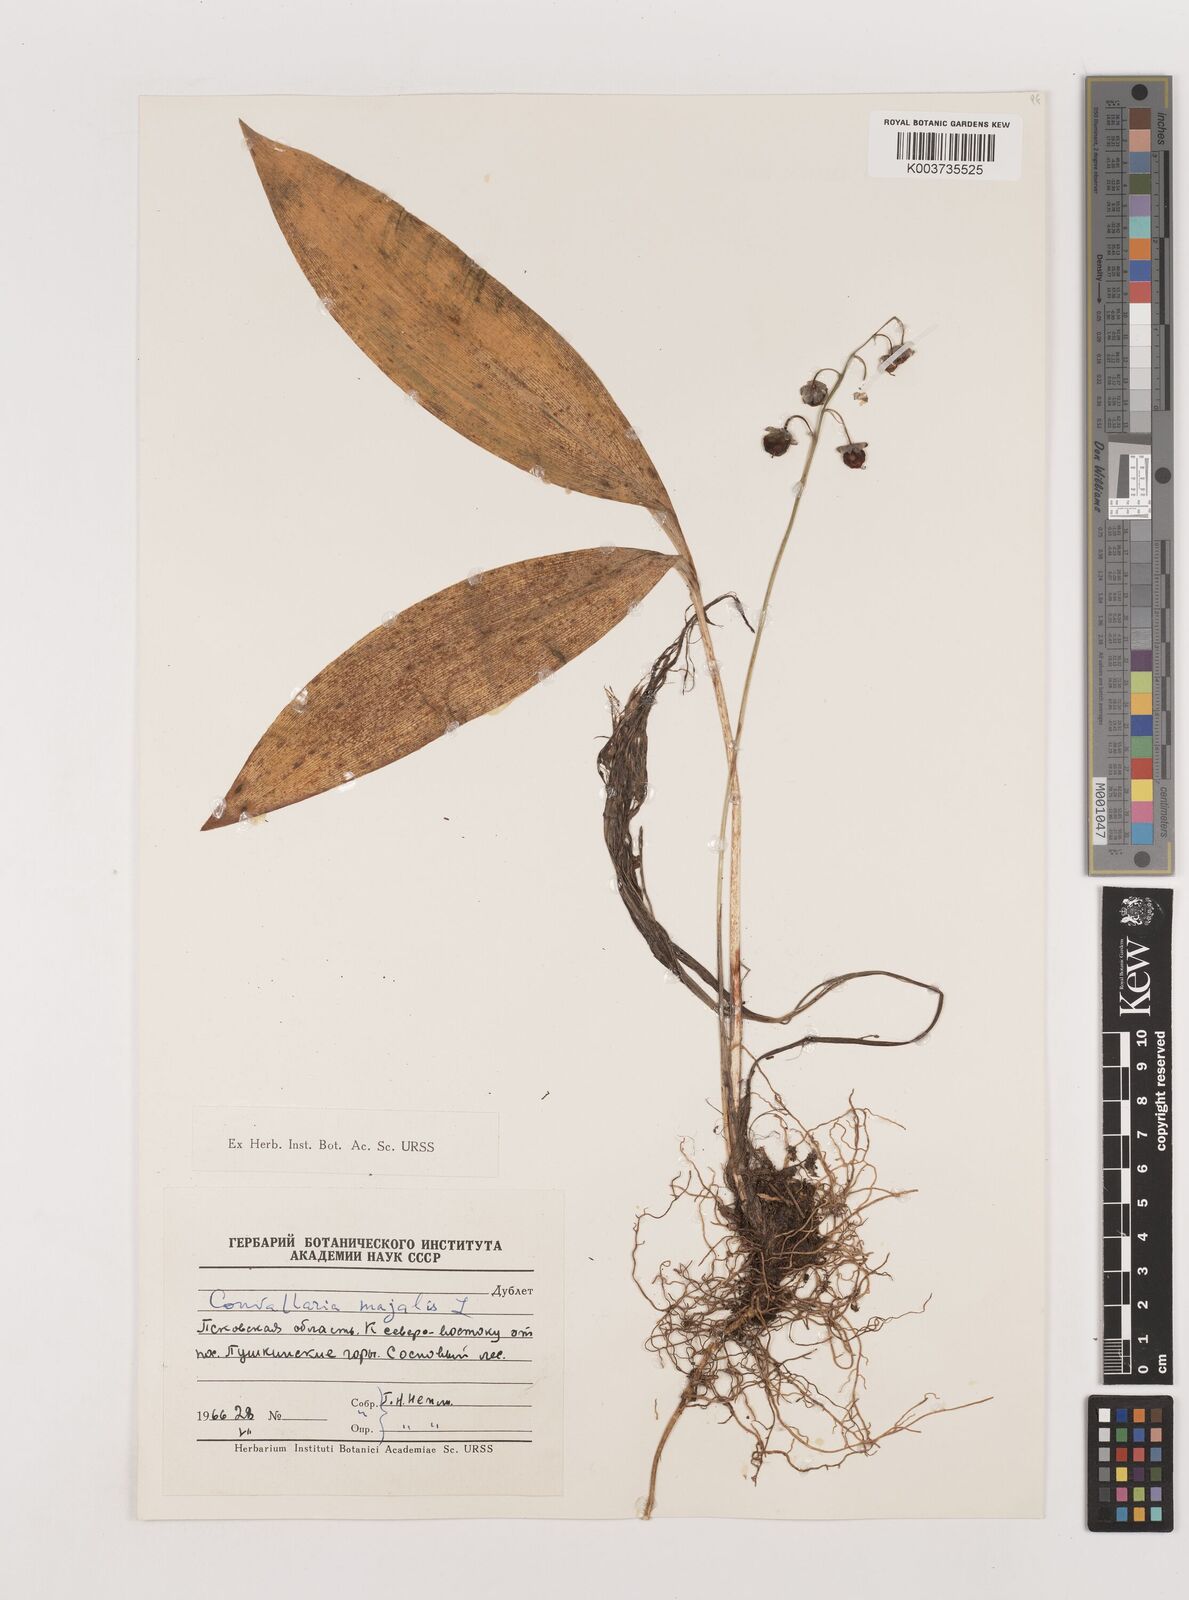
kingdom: Plantae
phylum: Tracheophyta
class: Liliopsida
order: Asparagales
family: Asparagaceae
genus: Convallaria
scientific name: Convallaria majalis
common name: Lily-of-the-valley
